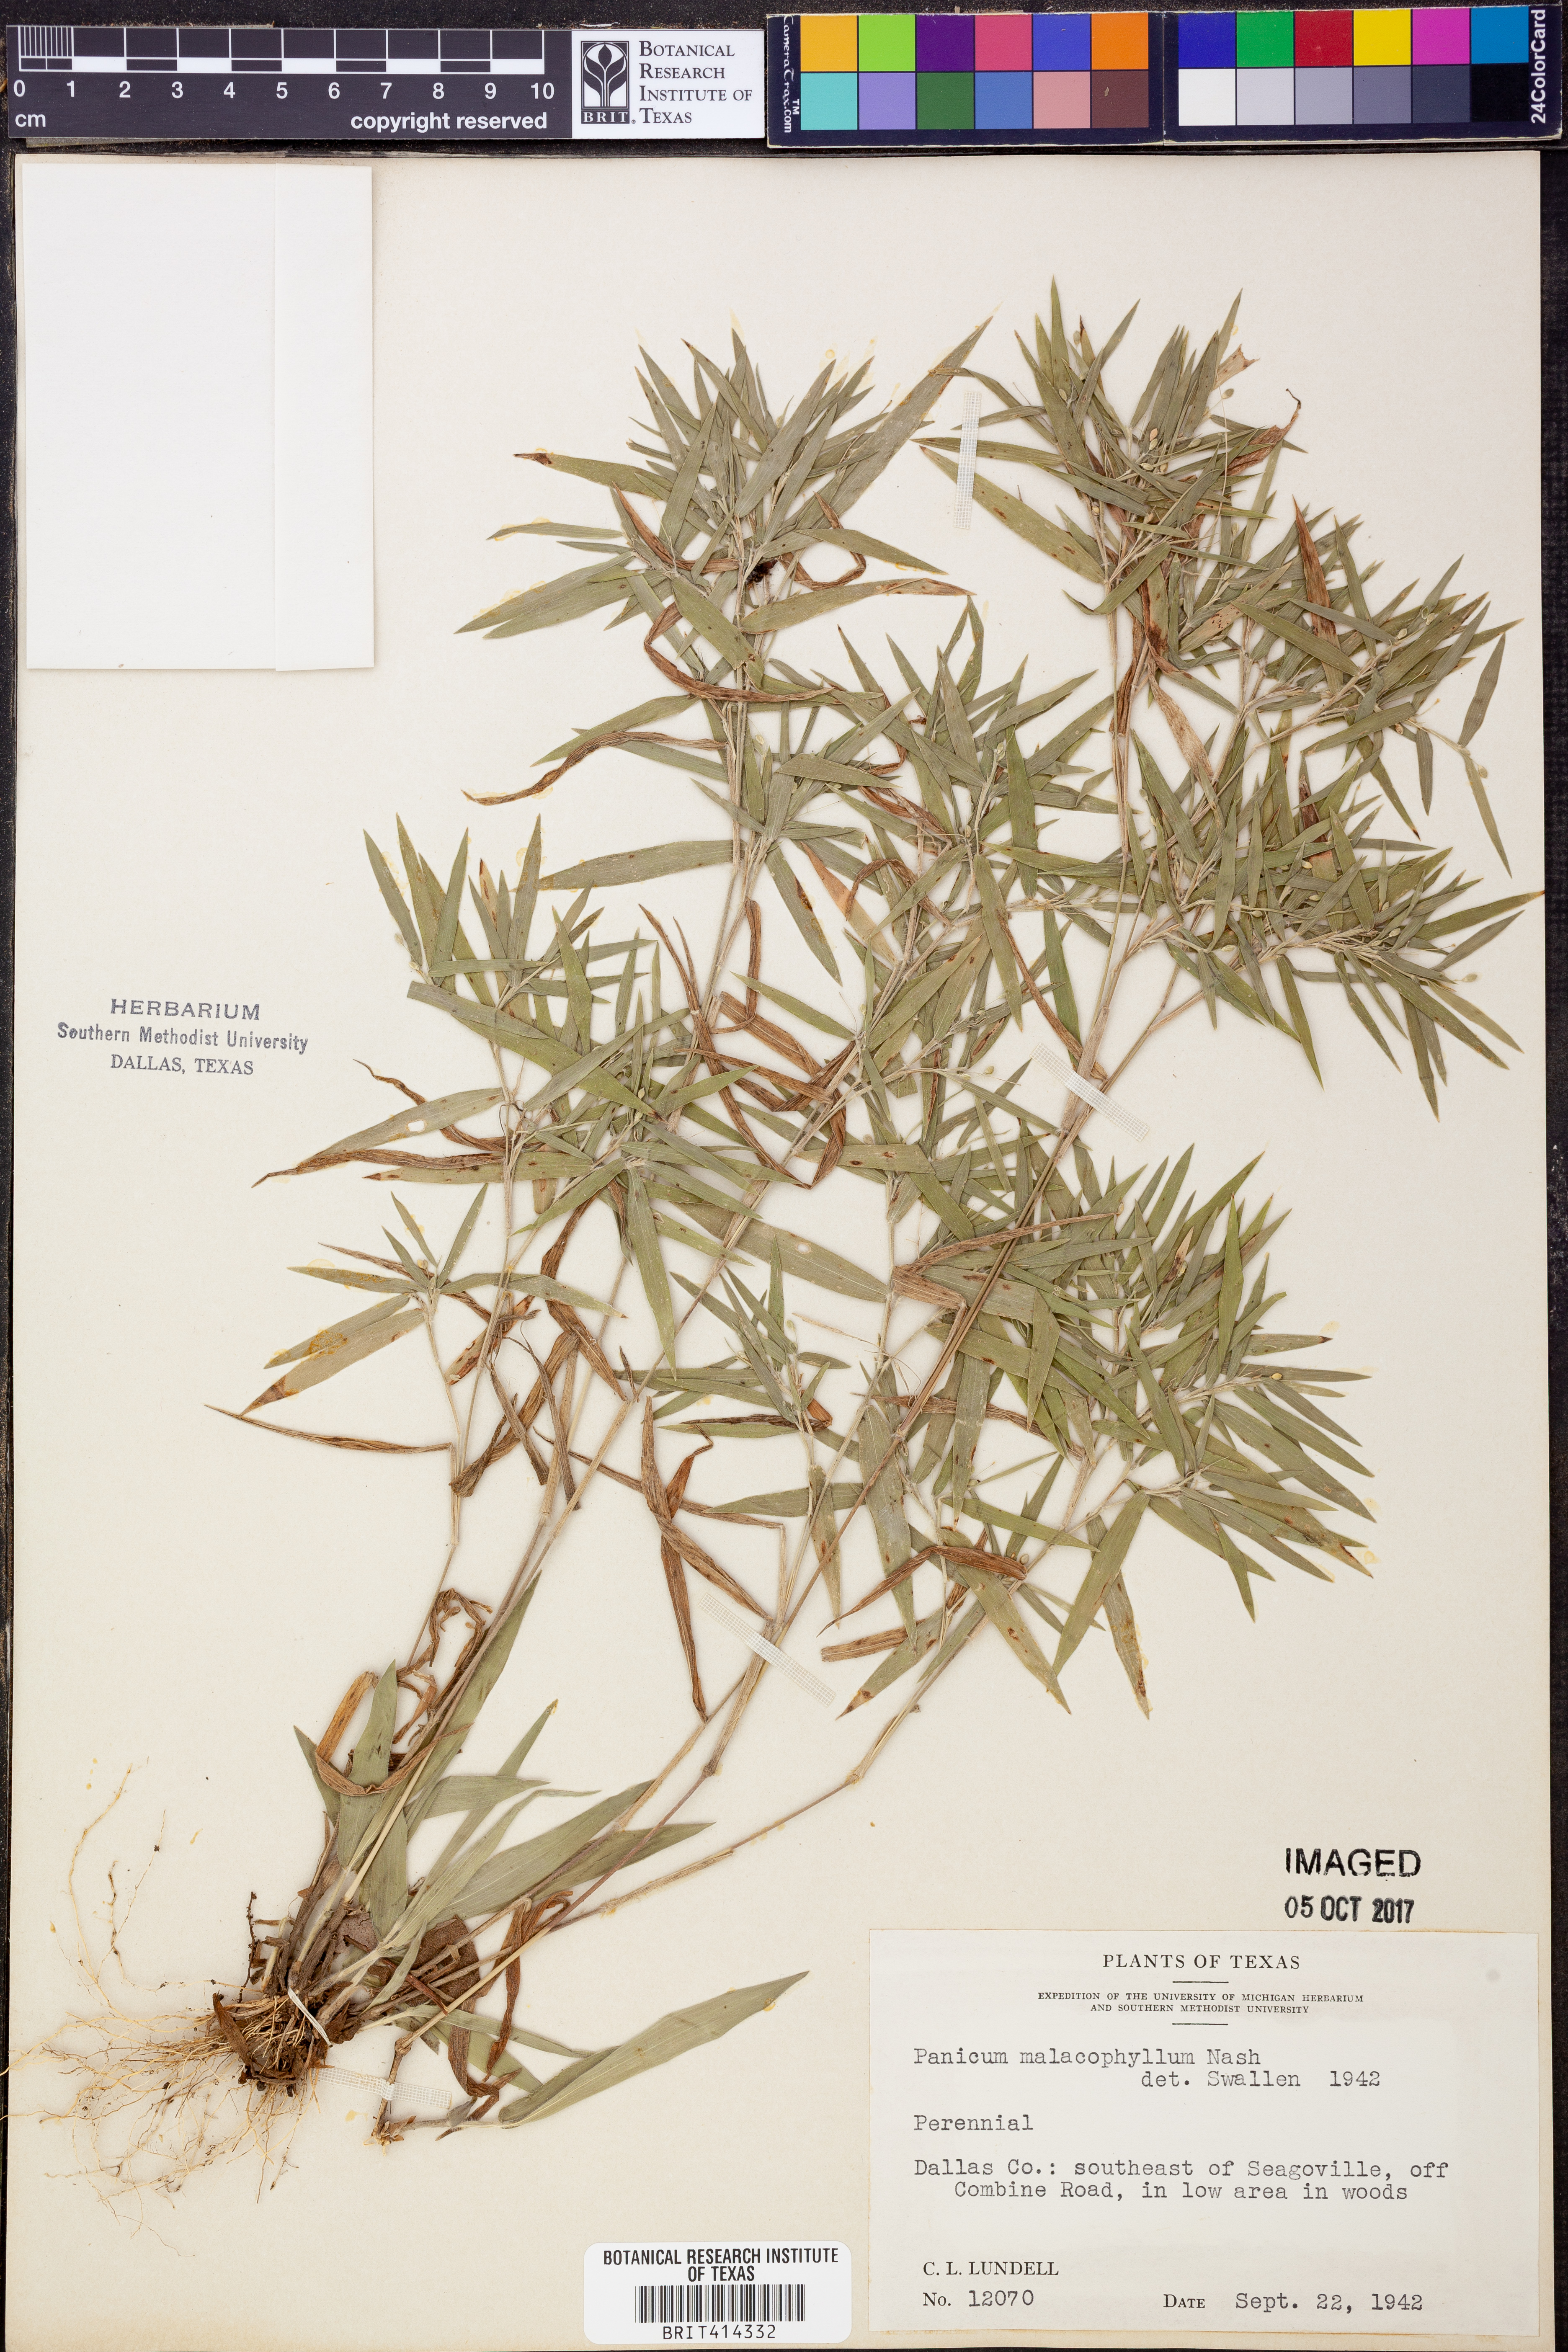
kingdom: Plantae
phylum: Tracheophyta
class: Liliopsida
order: Poales
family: Poaceae
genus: Dichanthelium
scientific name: Dichanthelium malacophyllum
